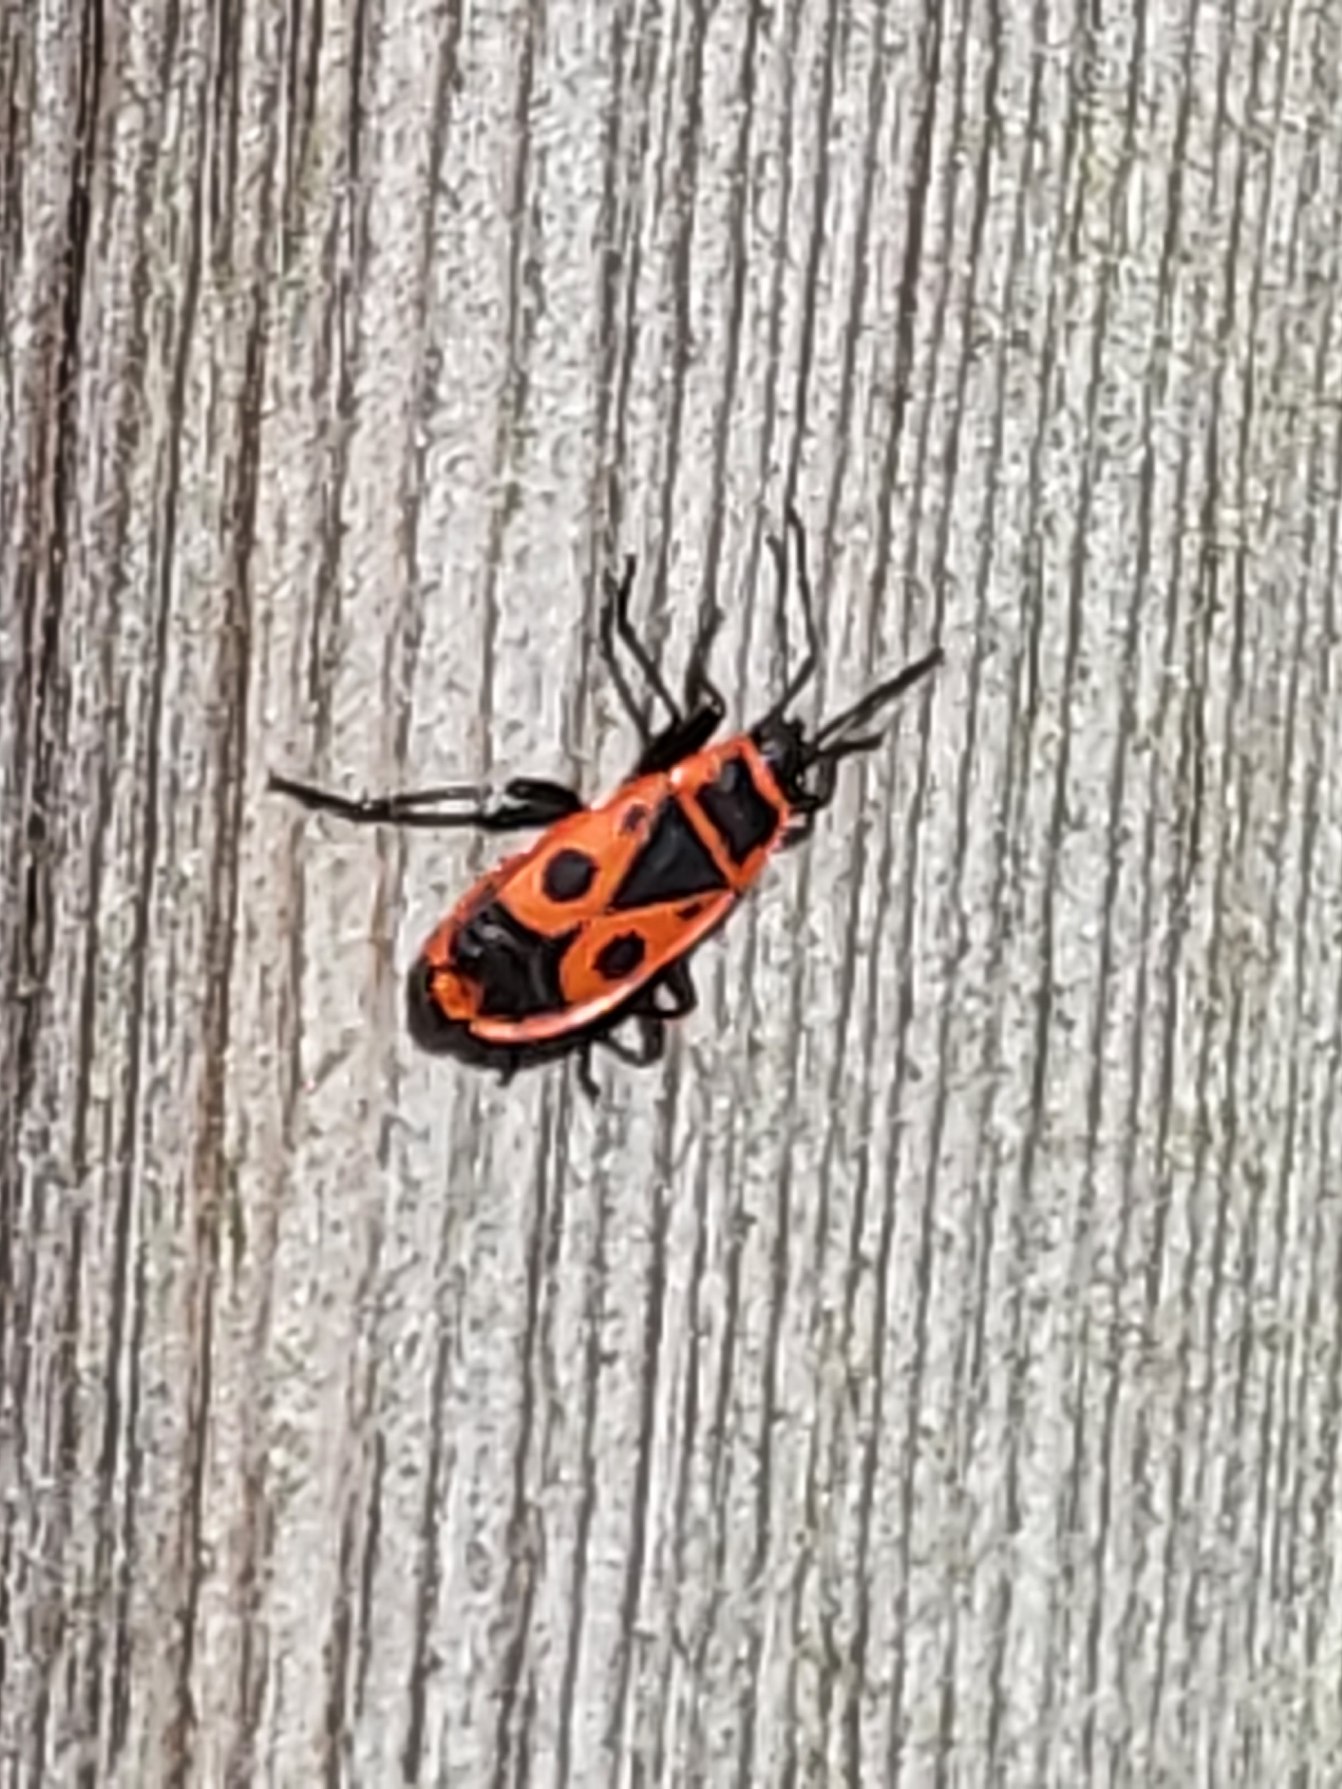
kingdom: Animalia
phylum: Arthropoda
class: Insecta
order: Hemiptera
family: Pyrrhocoridae
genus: Pyrrhocoris
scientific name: Pyrrhocoris apterus
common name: Ildtæge
